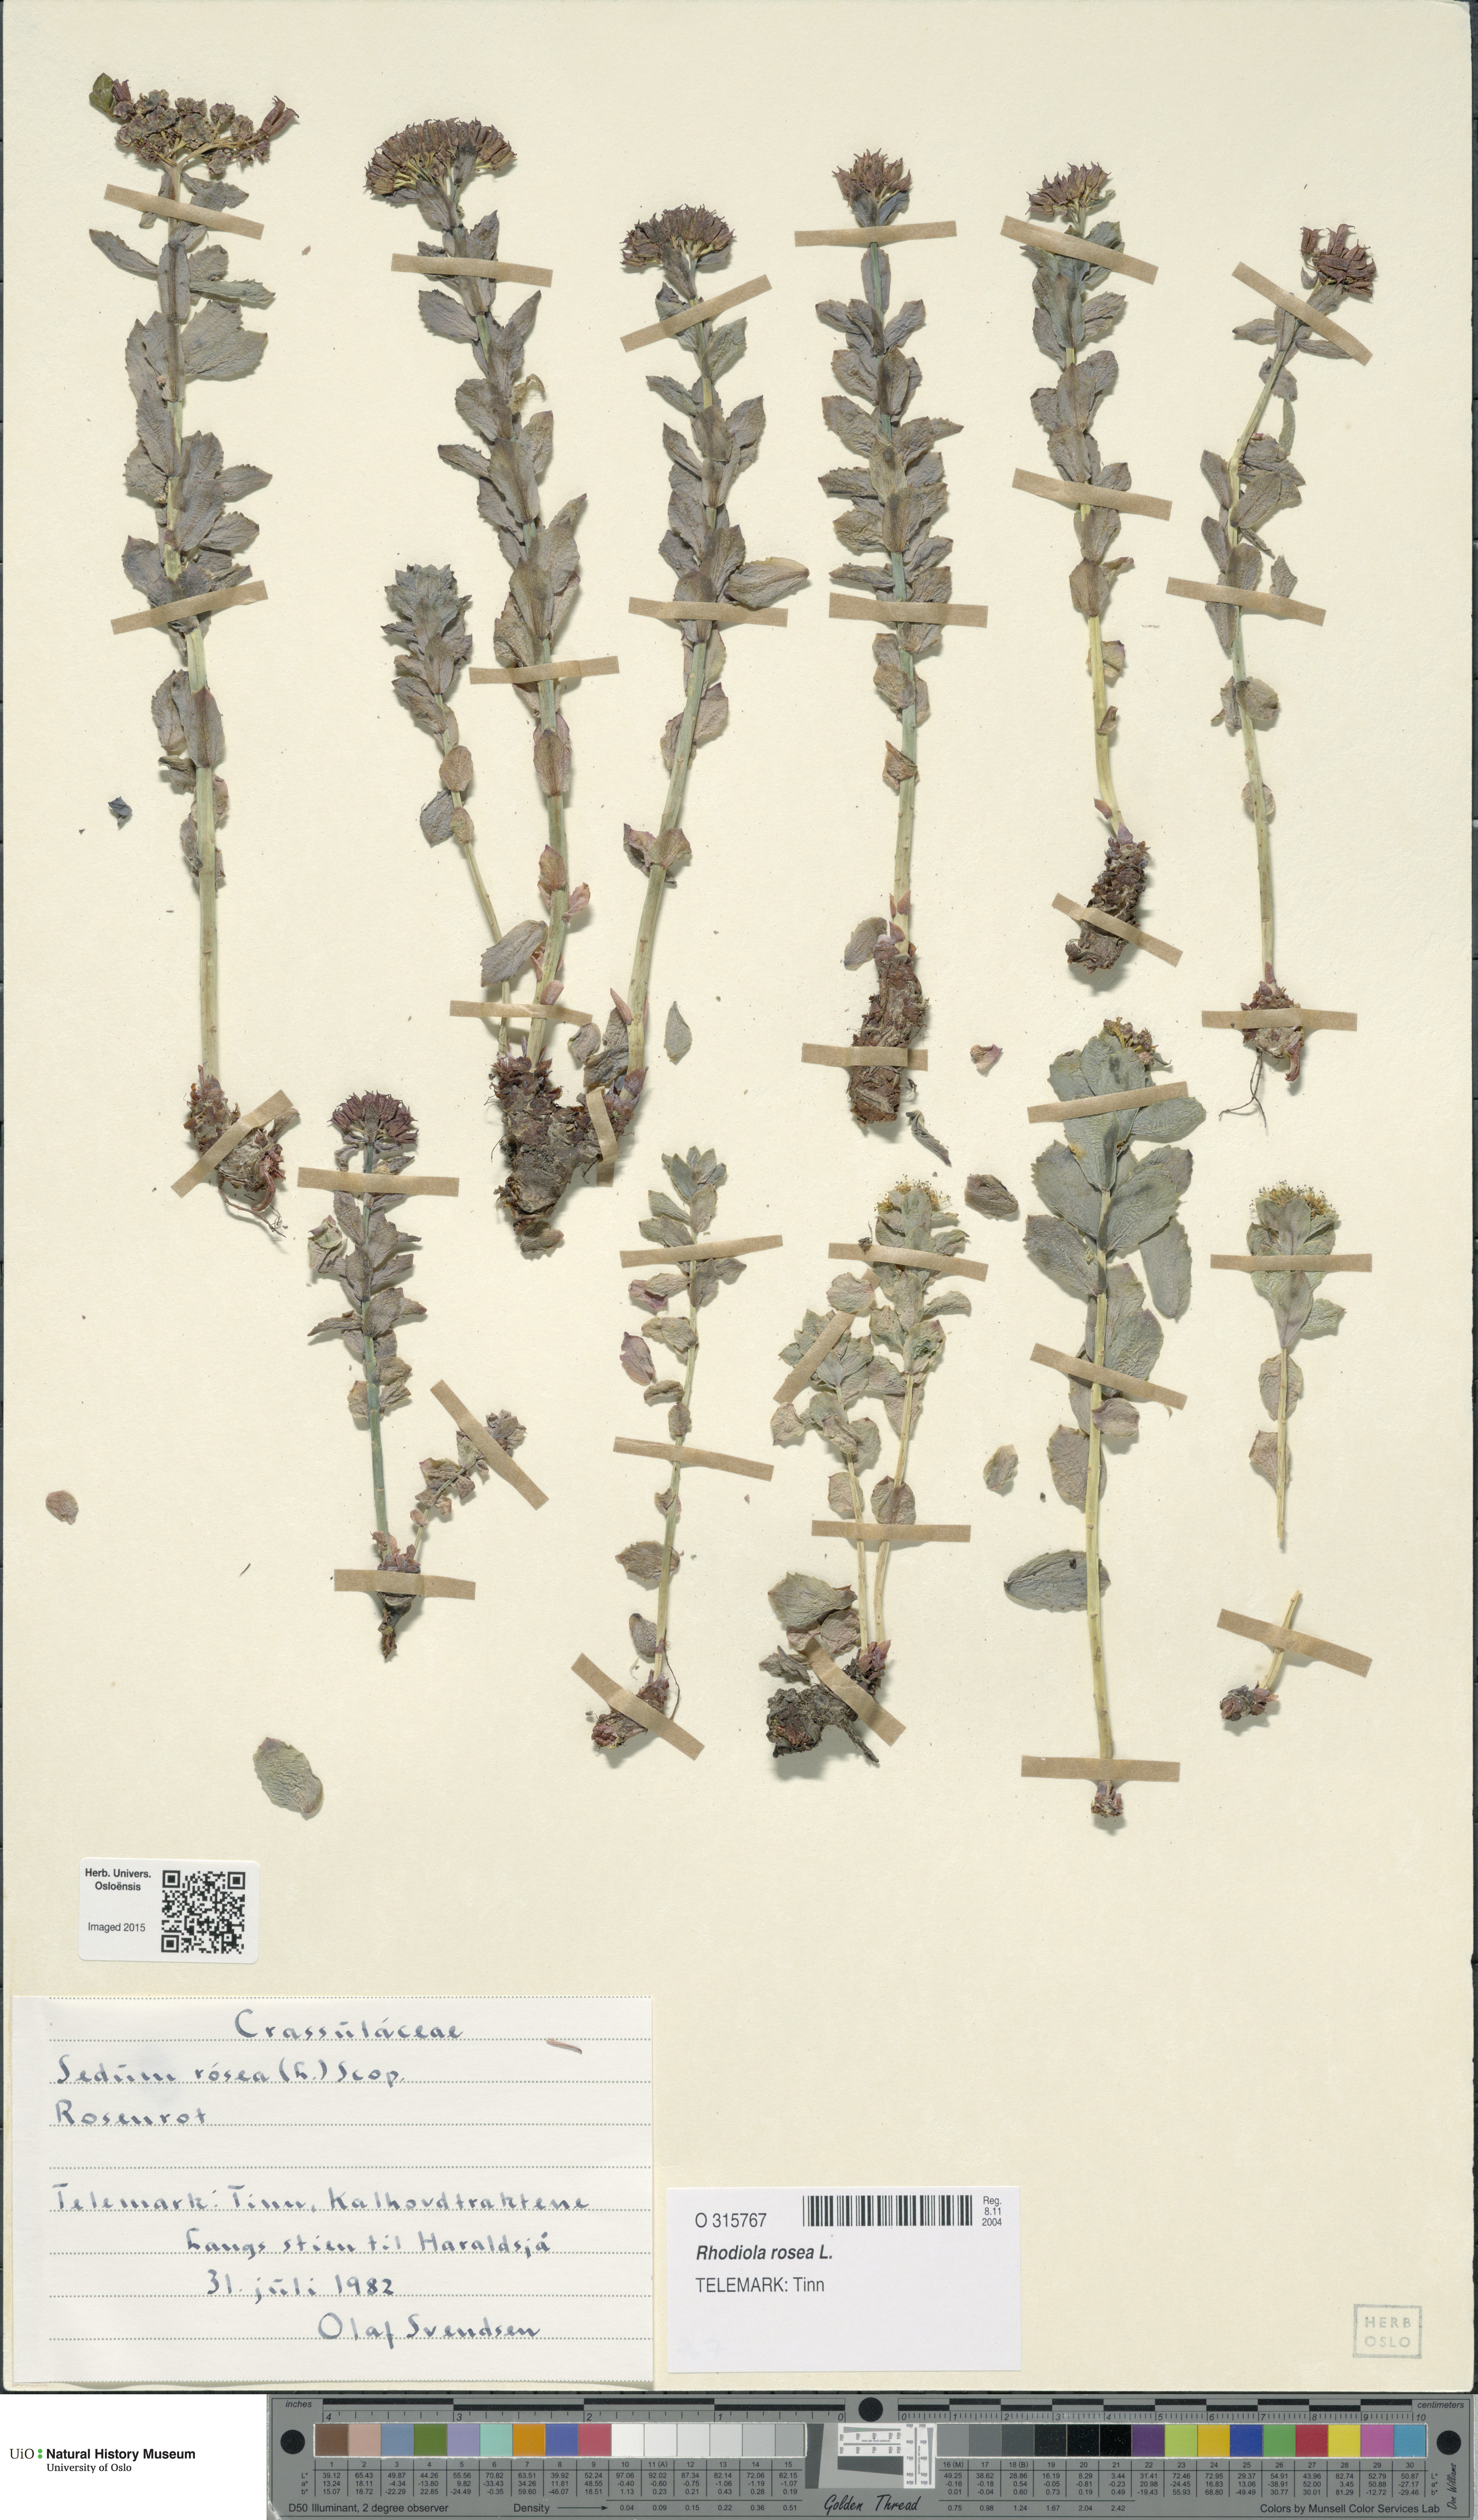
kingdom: Plantae
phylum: Tracheophyta
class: Magnoliopsida
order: Saxifragales
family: Crassulaceae
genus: Rhodiola
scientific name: Rhodiola rosea
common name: Roseroot
